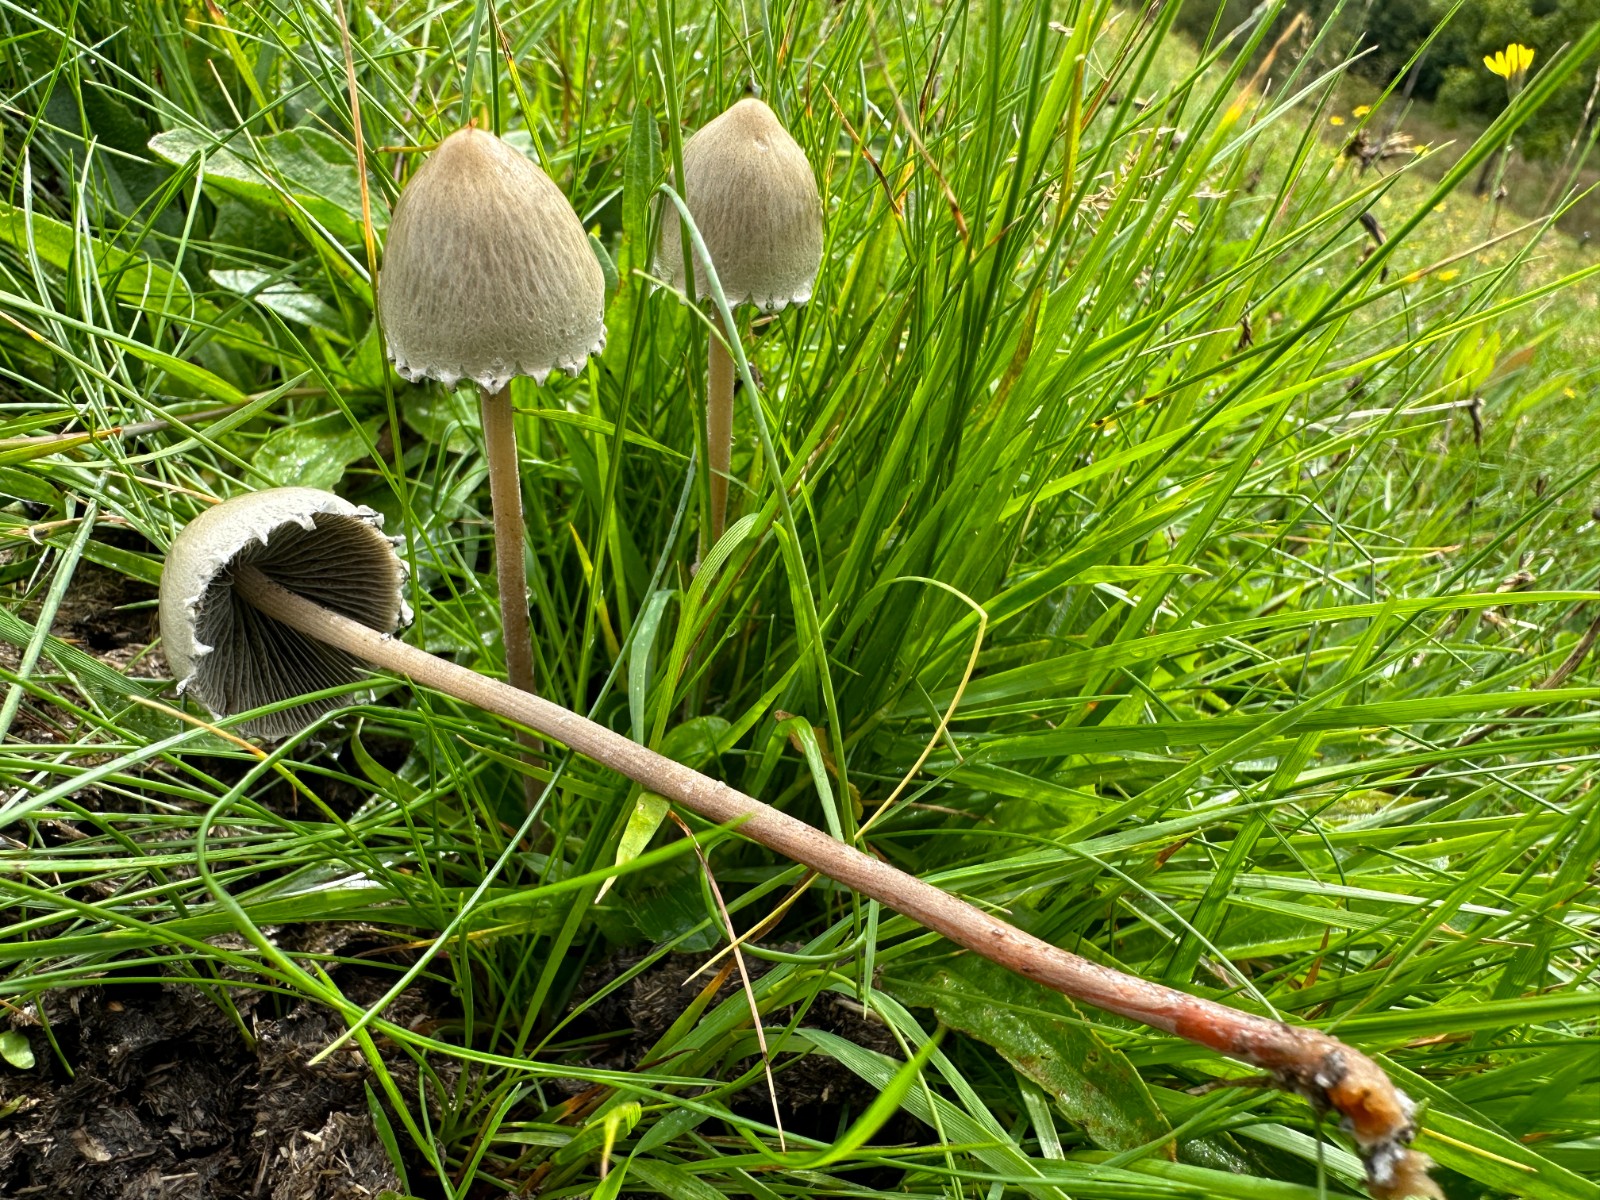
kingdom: Fungi
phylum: Basidiomycota
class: Agaricomycetes
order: Agaricales
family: Bolbitiaceae
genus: Panaeolus
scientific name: Panaeolus papilionaceus
